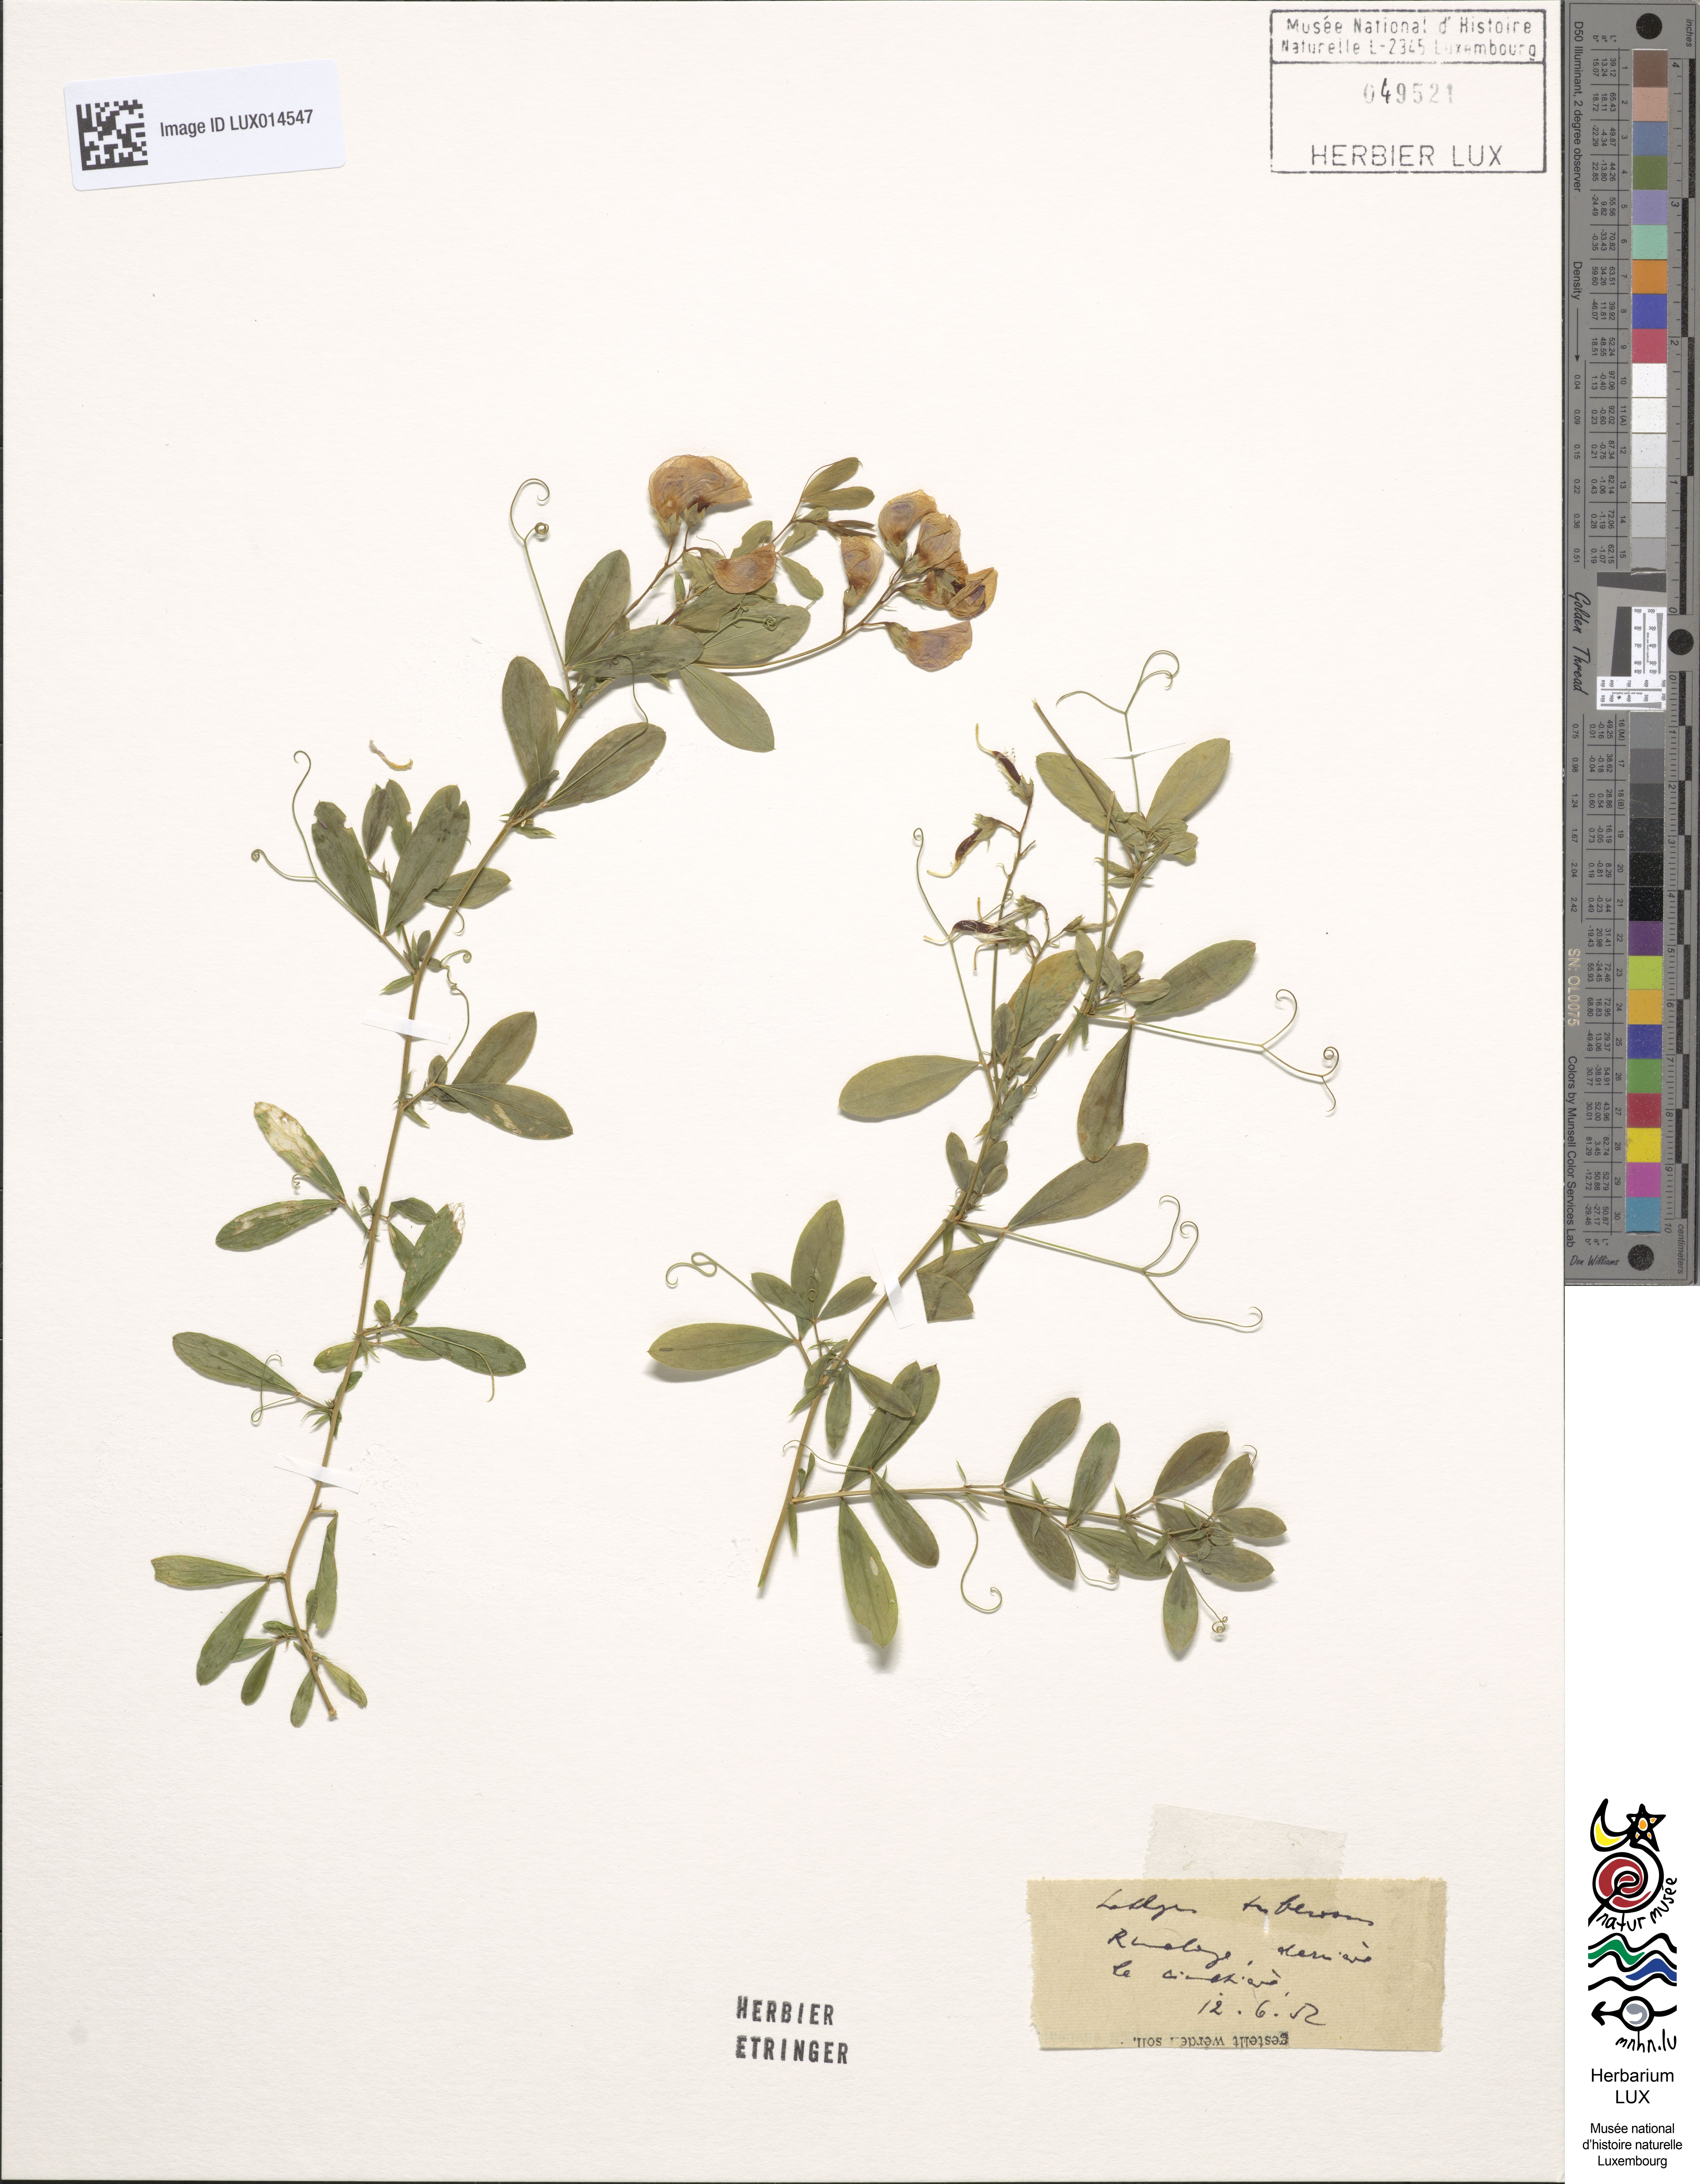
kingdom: Plantae
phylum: Tracheophyta
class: Magnoliopsida
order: Fabales
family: Fabaceae
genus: Lathyrus
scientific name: Lathyrus tuberosus
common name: Tuberous pea
